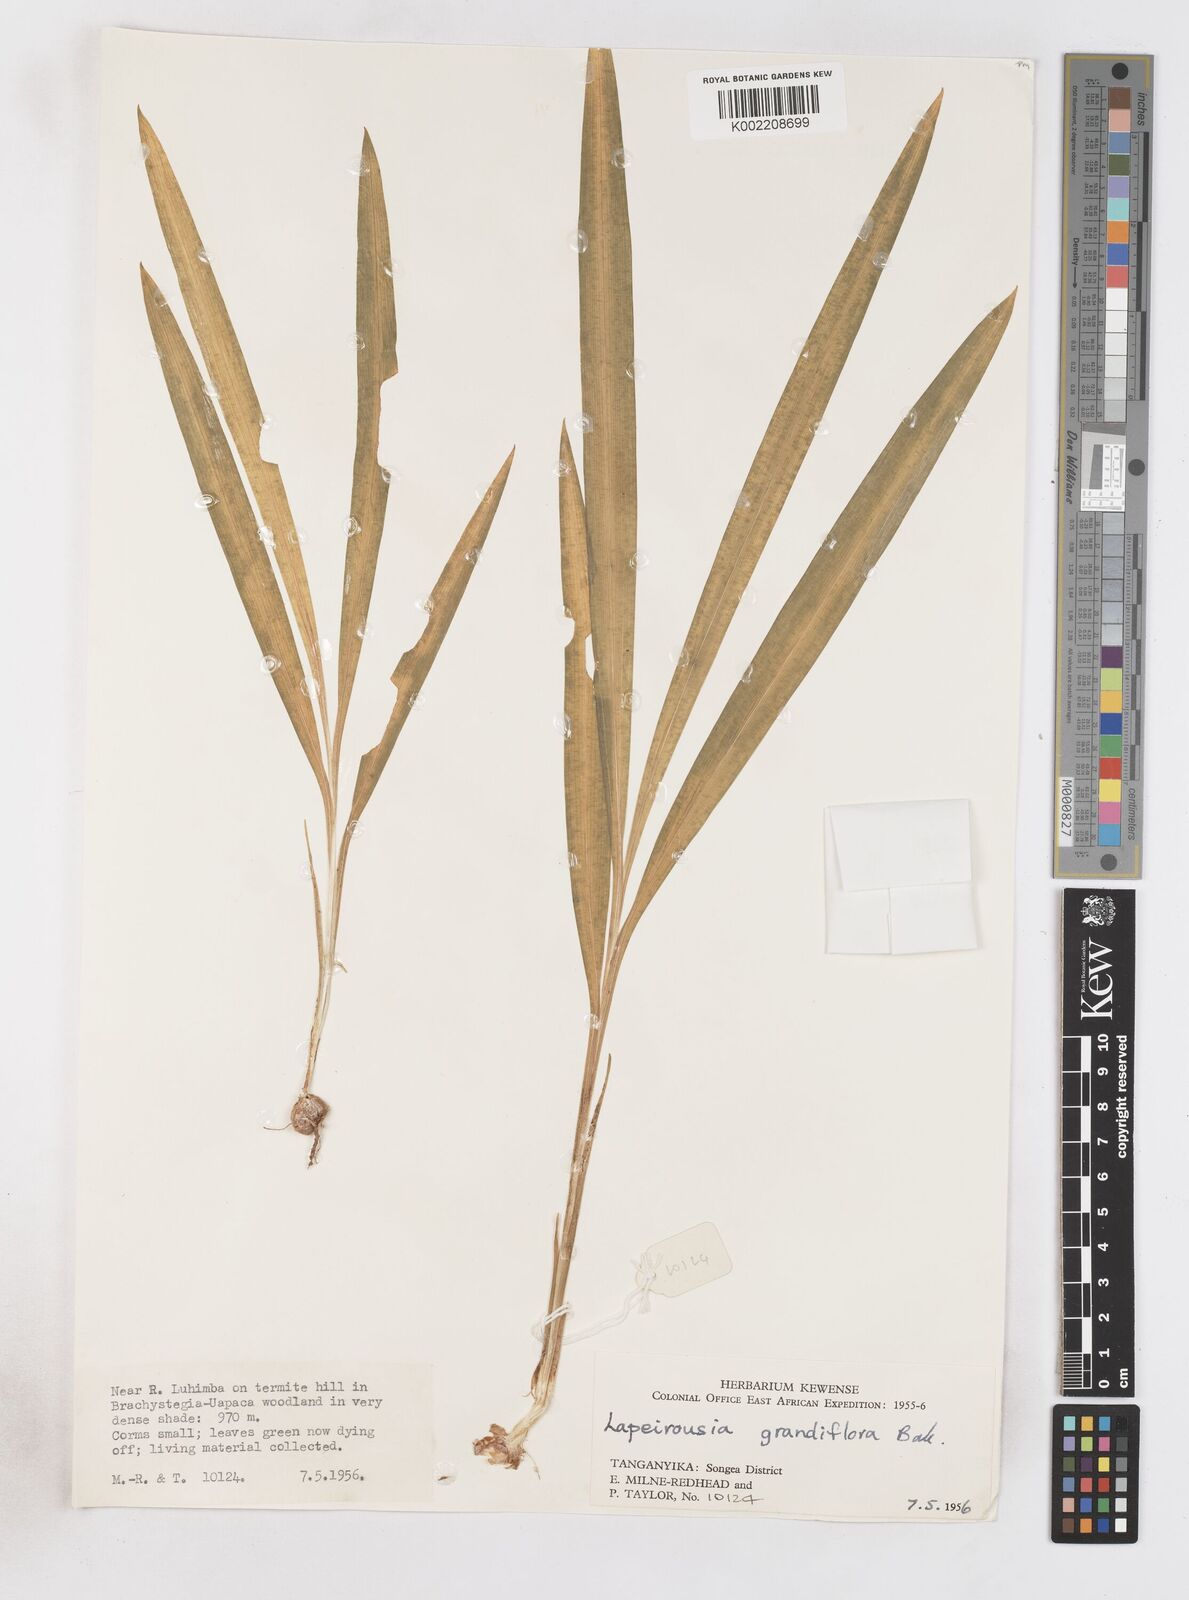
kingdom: Plantae
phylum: Tracheophyta
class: Liliopsida
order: Asparagales
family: Iridaceae
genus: Freesia
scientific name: Freesia grandiflora
